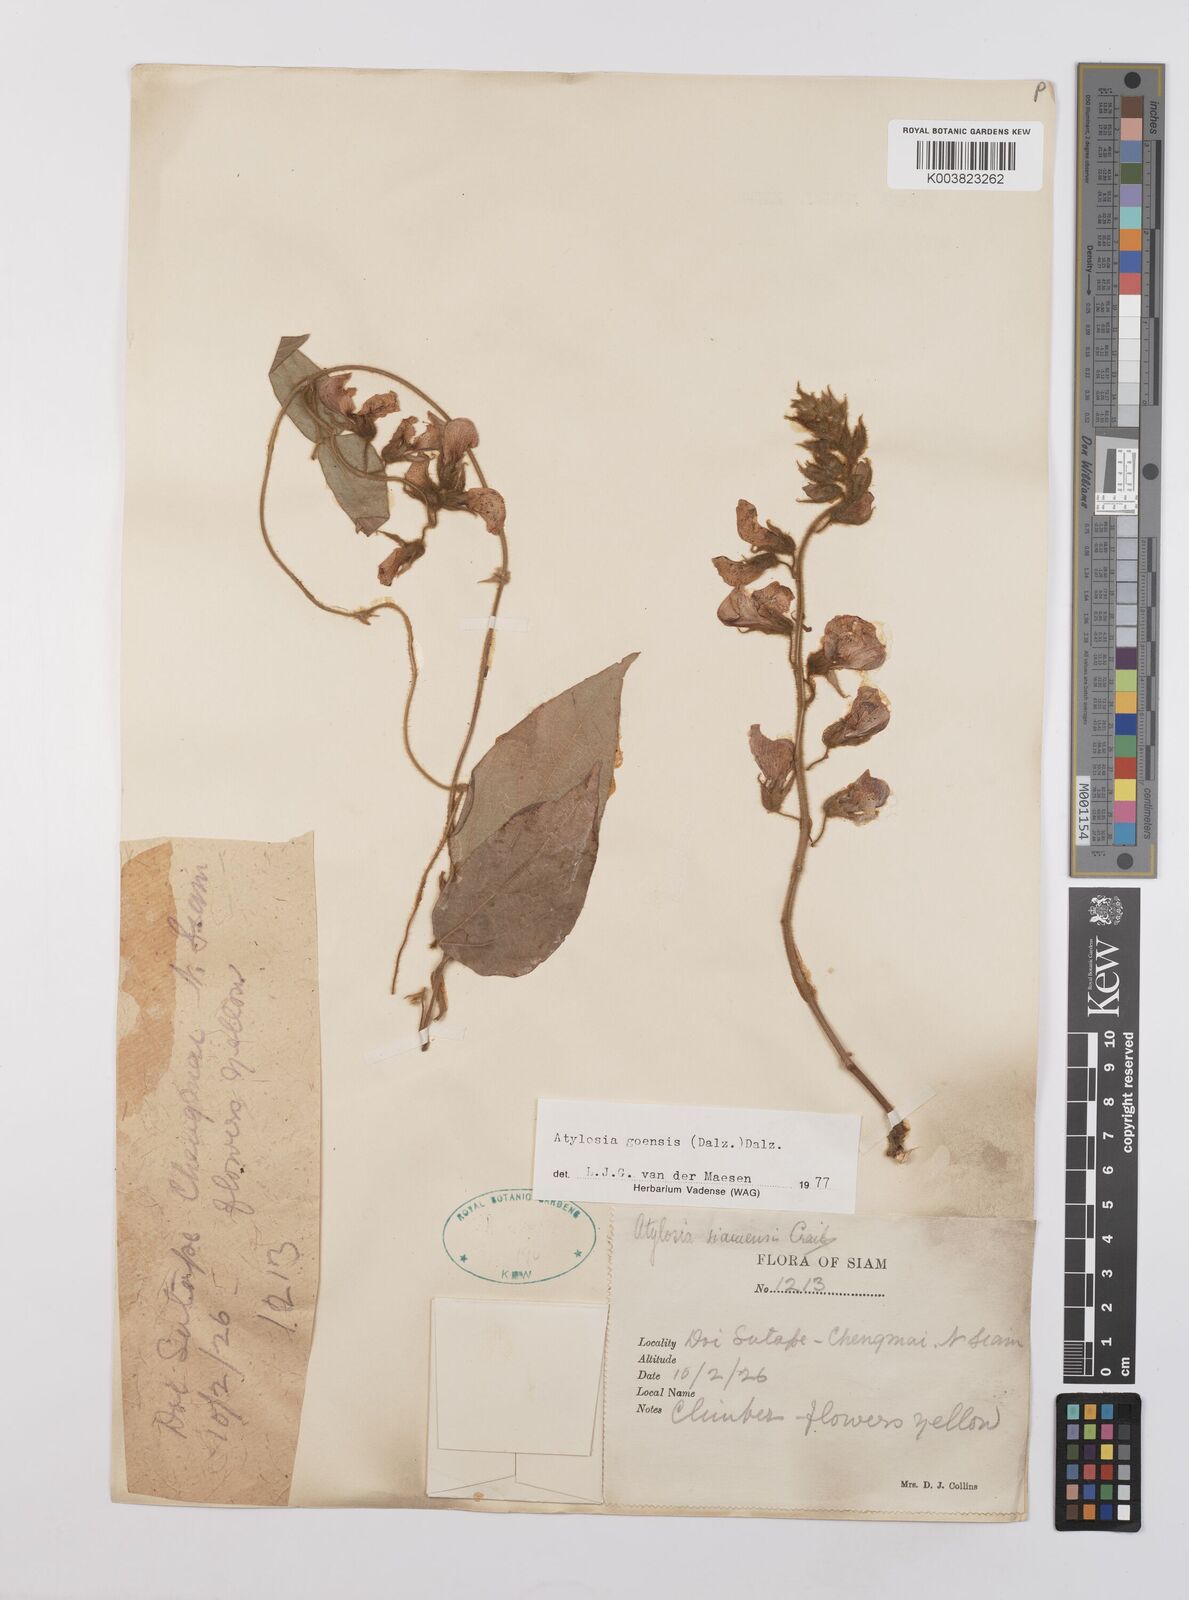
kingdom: Plantae
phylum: Tracheophyta
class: Magnoliopsida
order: Fabales
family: Fabaceae
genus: Cajanus
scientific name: Cajanus goensis
